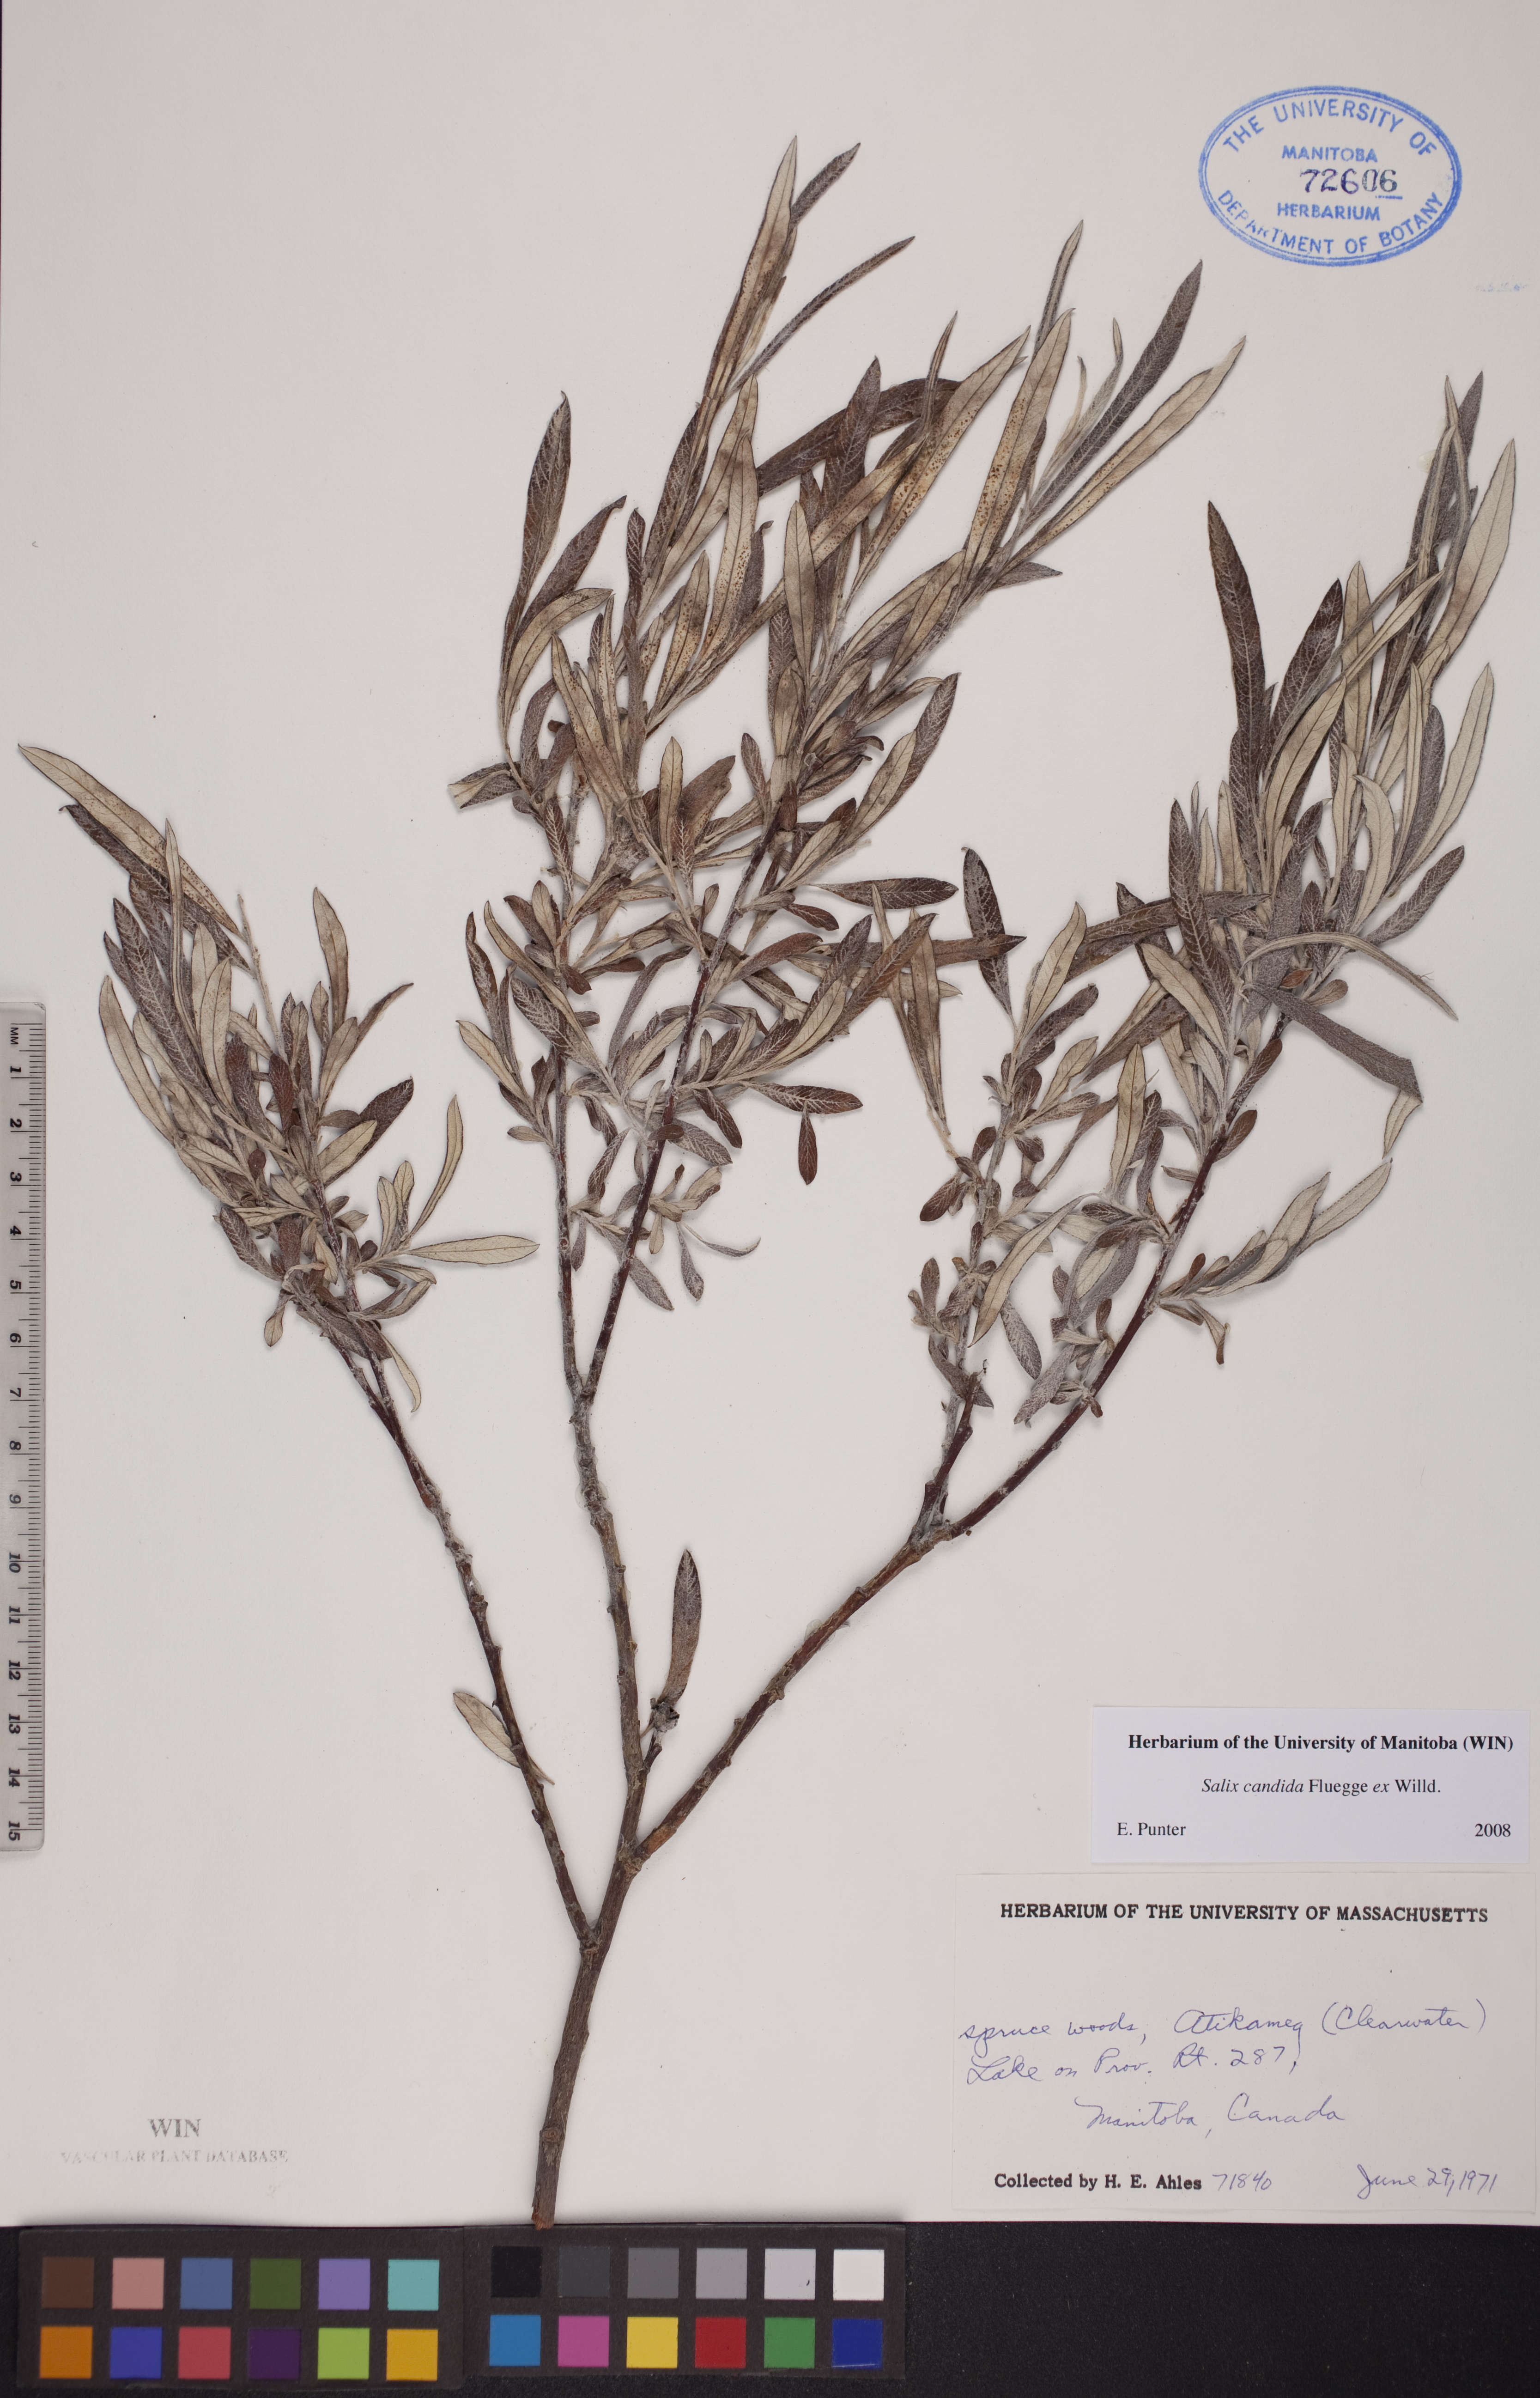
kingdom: Plantae
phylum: Tracheophyta
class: Magnoliopsida
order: Malpighiales
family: Salicaceae
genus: Salix
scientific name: Salix candida
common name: Hoary willow
